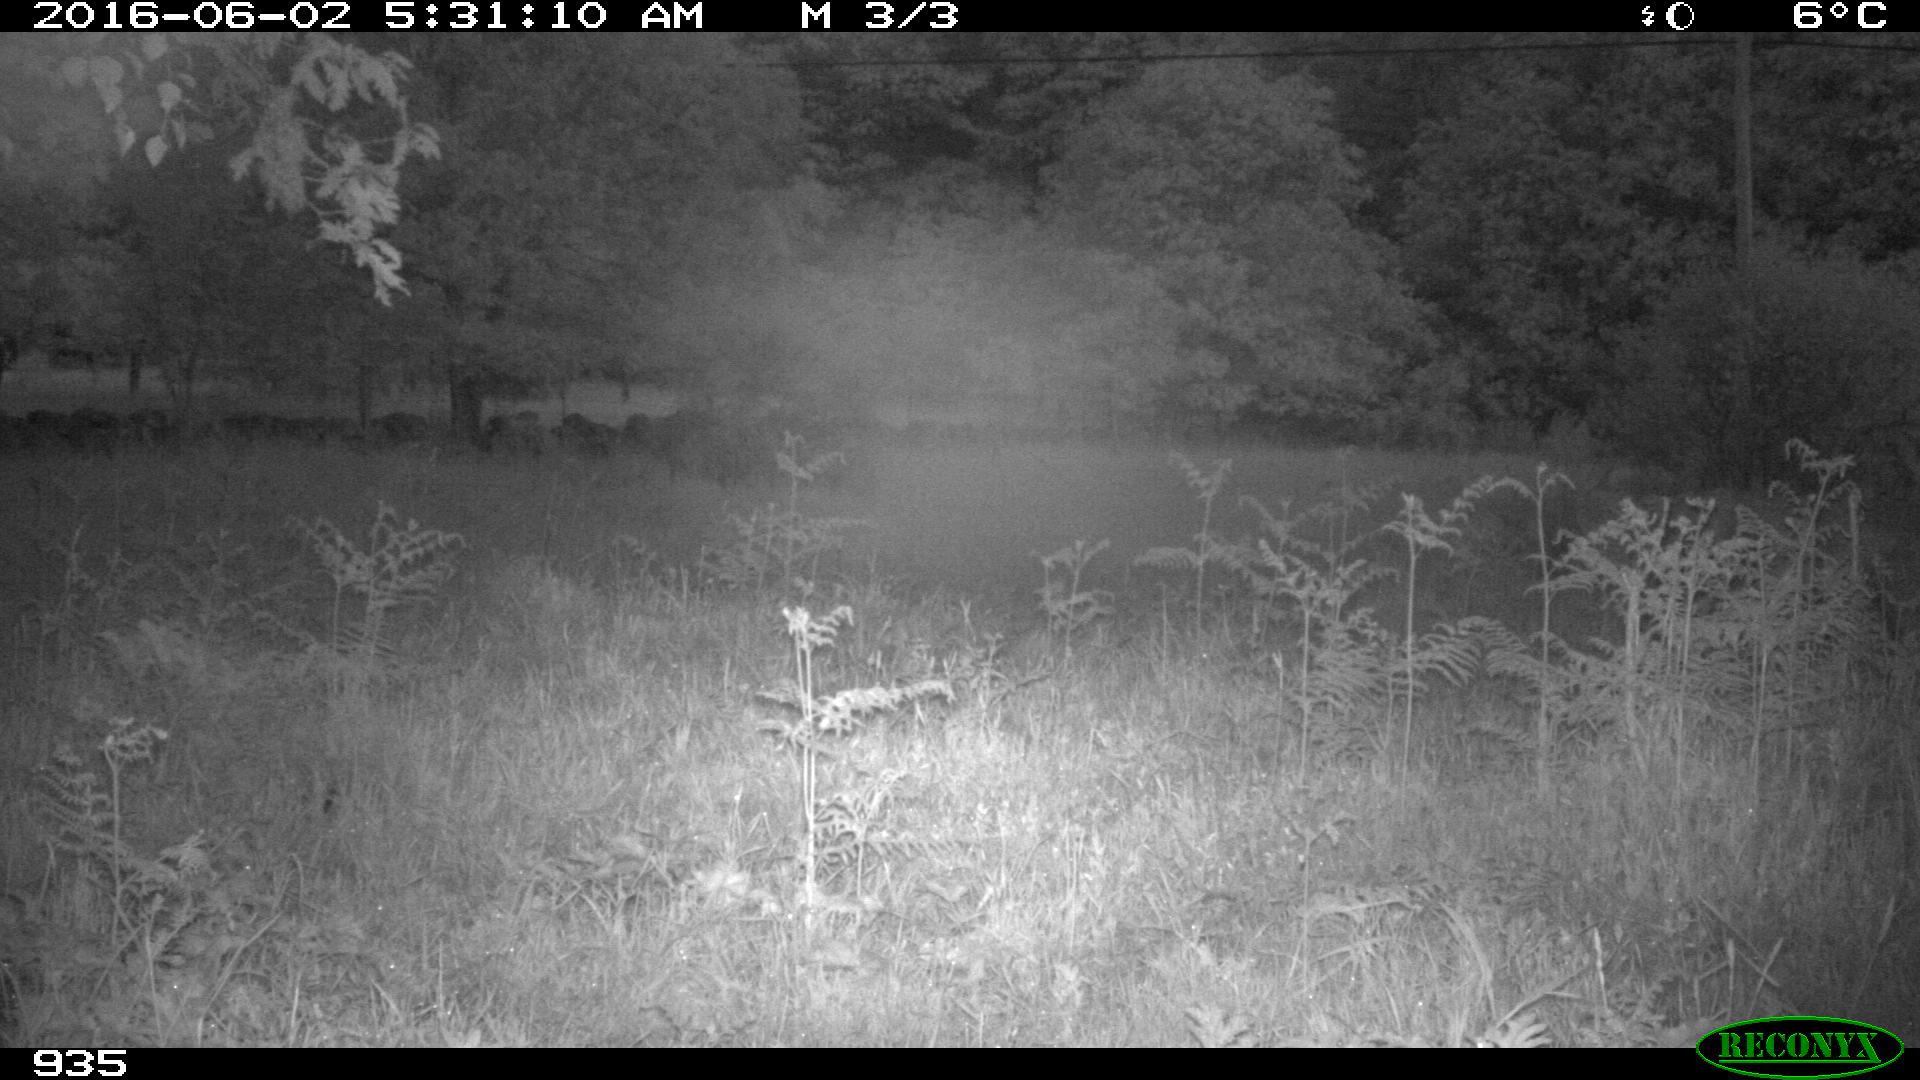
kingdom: Animalia
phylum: Chordata
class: Mammalia
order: Artiodactyla
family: Cervidae
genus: Capreolus
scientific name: Capreolus capreolus
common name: Western roe deer
